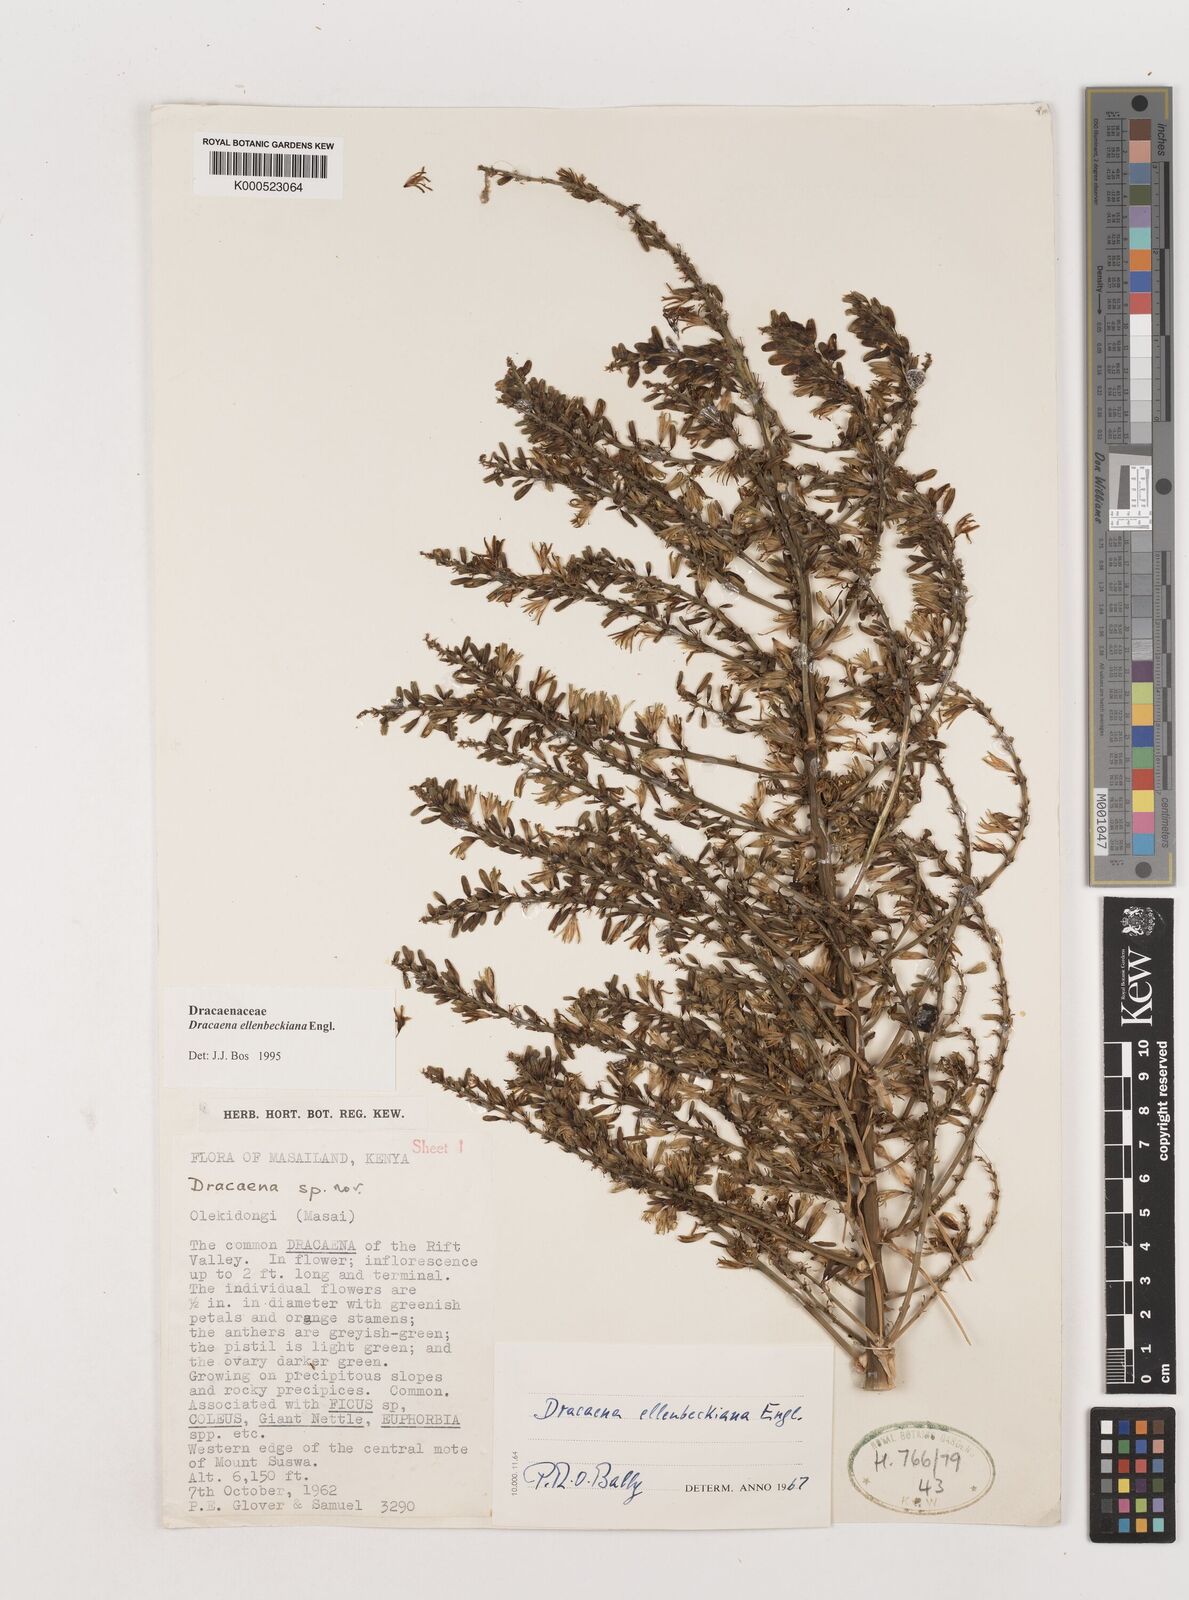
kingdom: Plantae
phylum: Tracheophyta
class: Liliopsida
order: Asparagales
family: Asparagaceae
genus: Dracaena
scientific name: Dracaena ellenbeckiana
